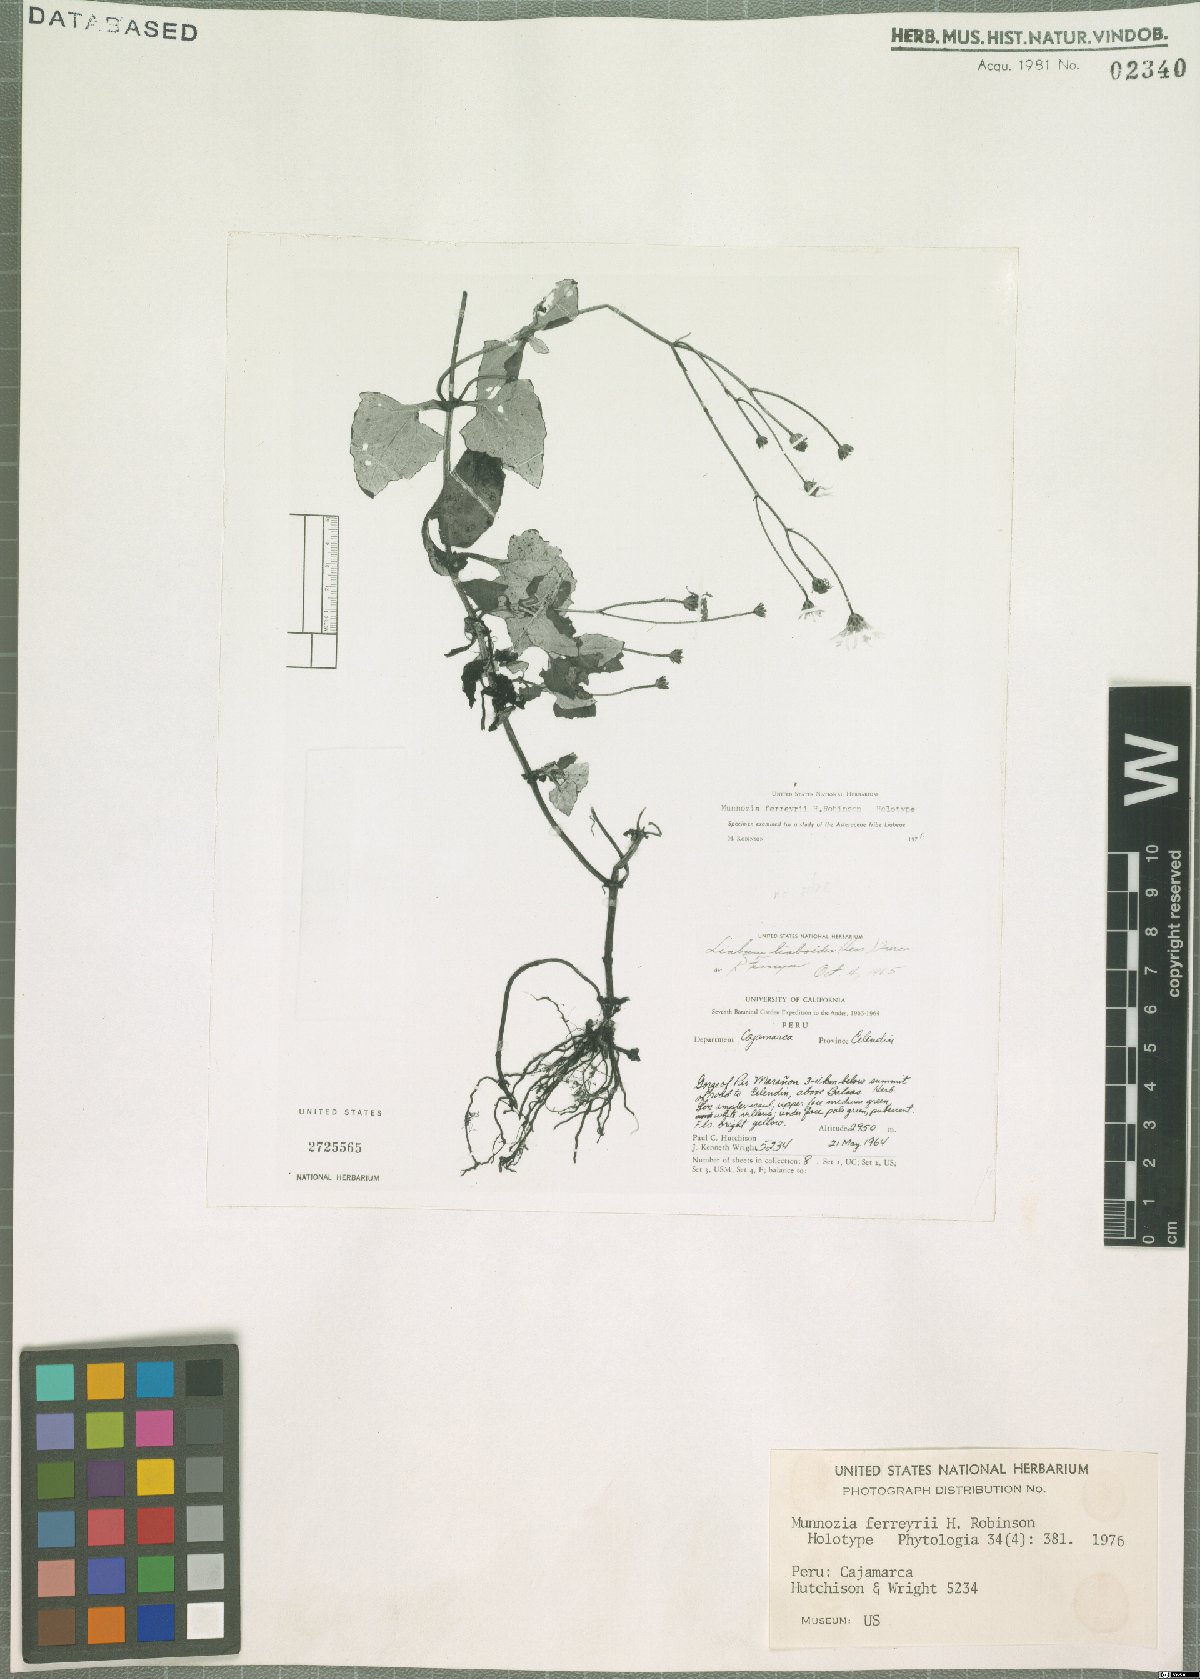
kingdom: Plantae
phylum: Tracheophyta
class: Magnoliopsida
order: Asterales
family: Asteraceae
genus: Munnozia
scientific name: Munnozia ferreyrii
